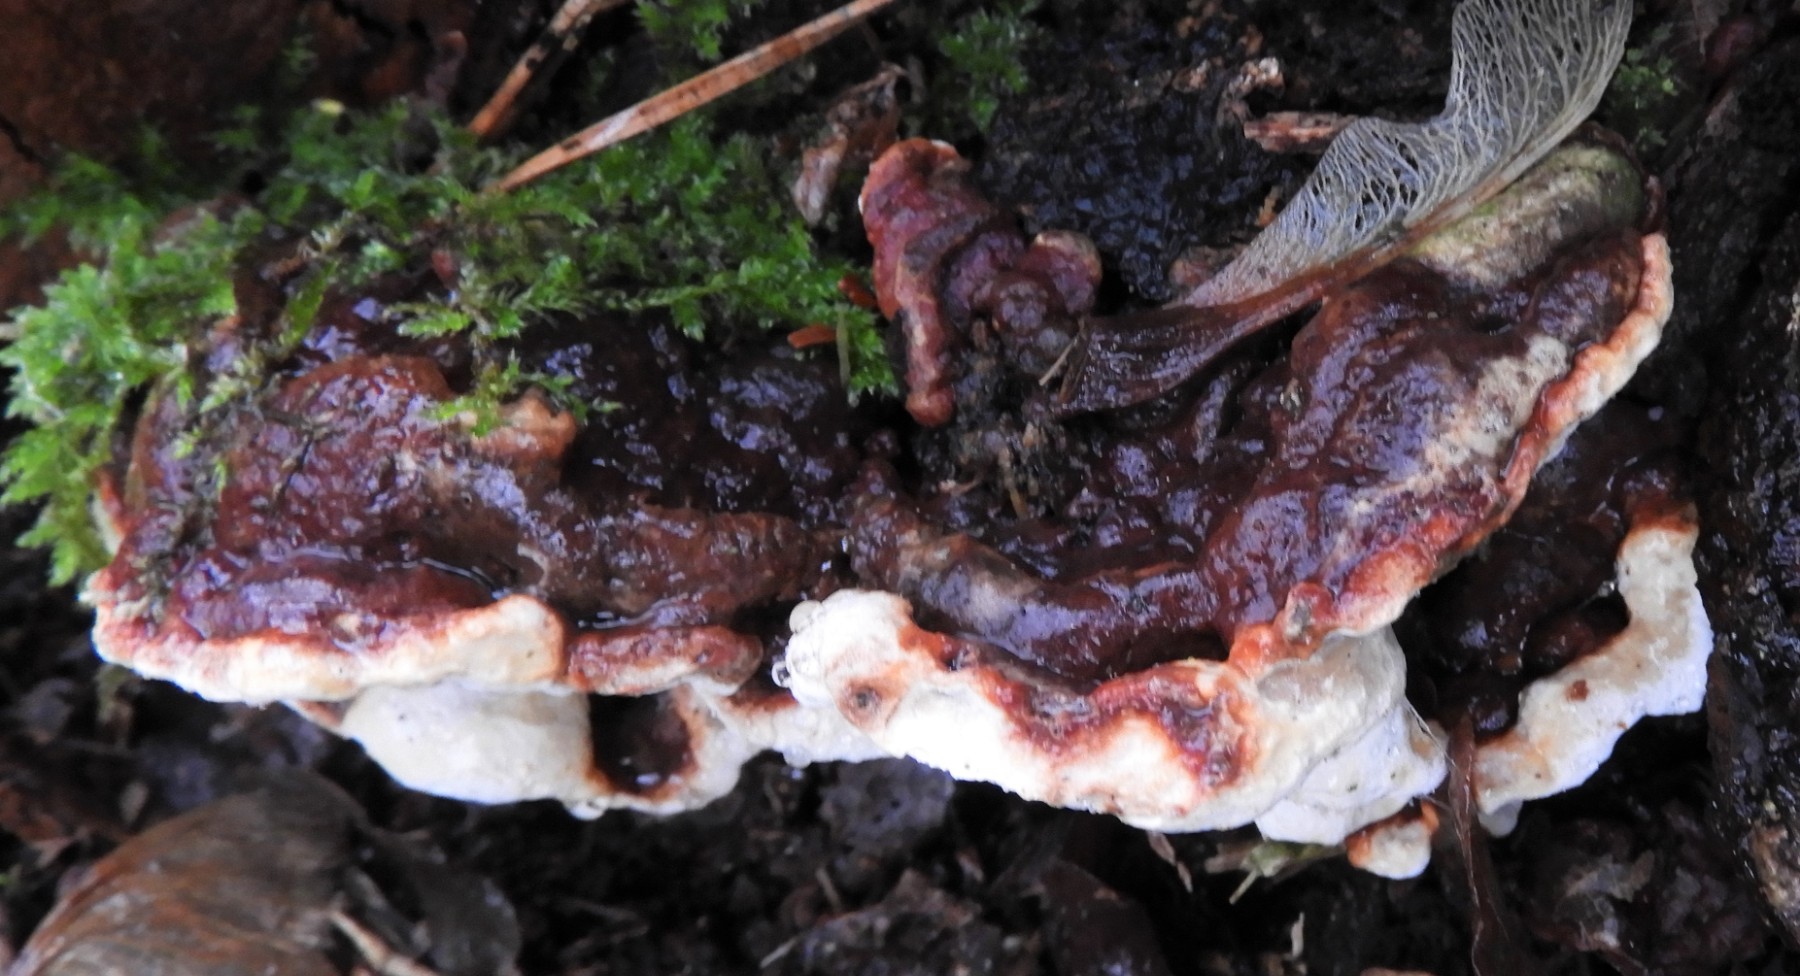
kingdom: Fungi
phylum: Basidiomycota
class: Agaricomycetes
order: Russulales
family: Bondarzewiaceae
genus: Heterobasidion
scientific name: Heterobasidion annosum
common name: almindelig rodfordærver
